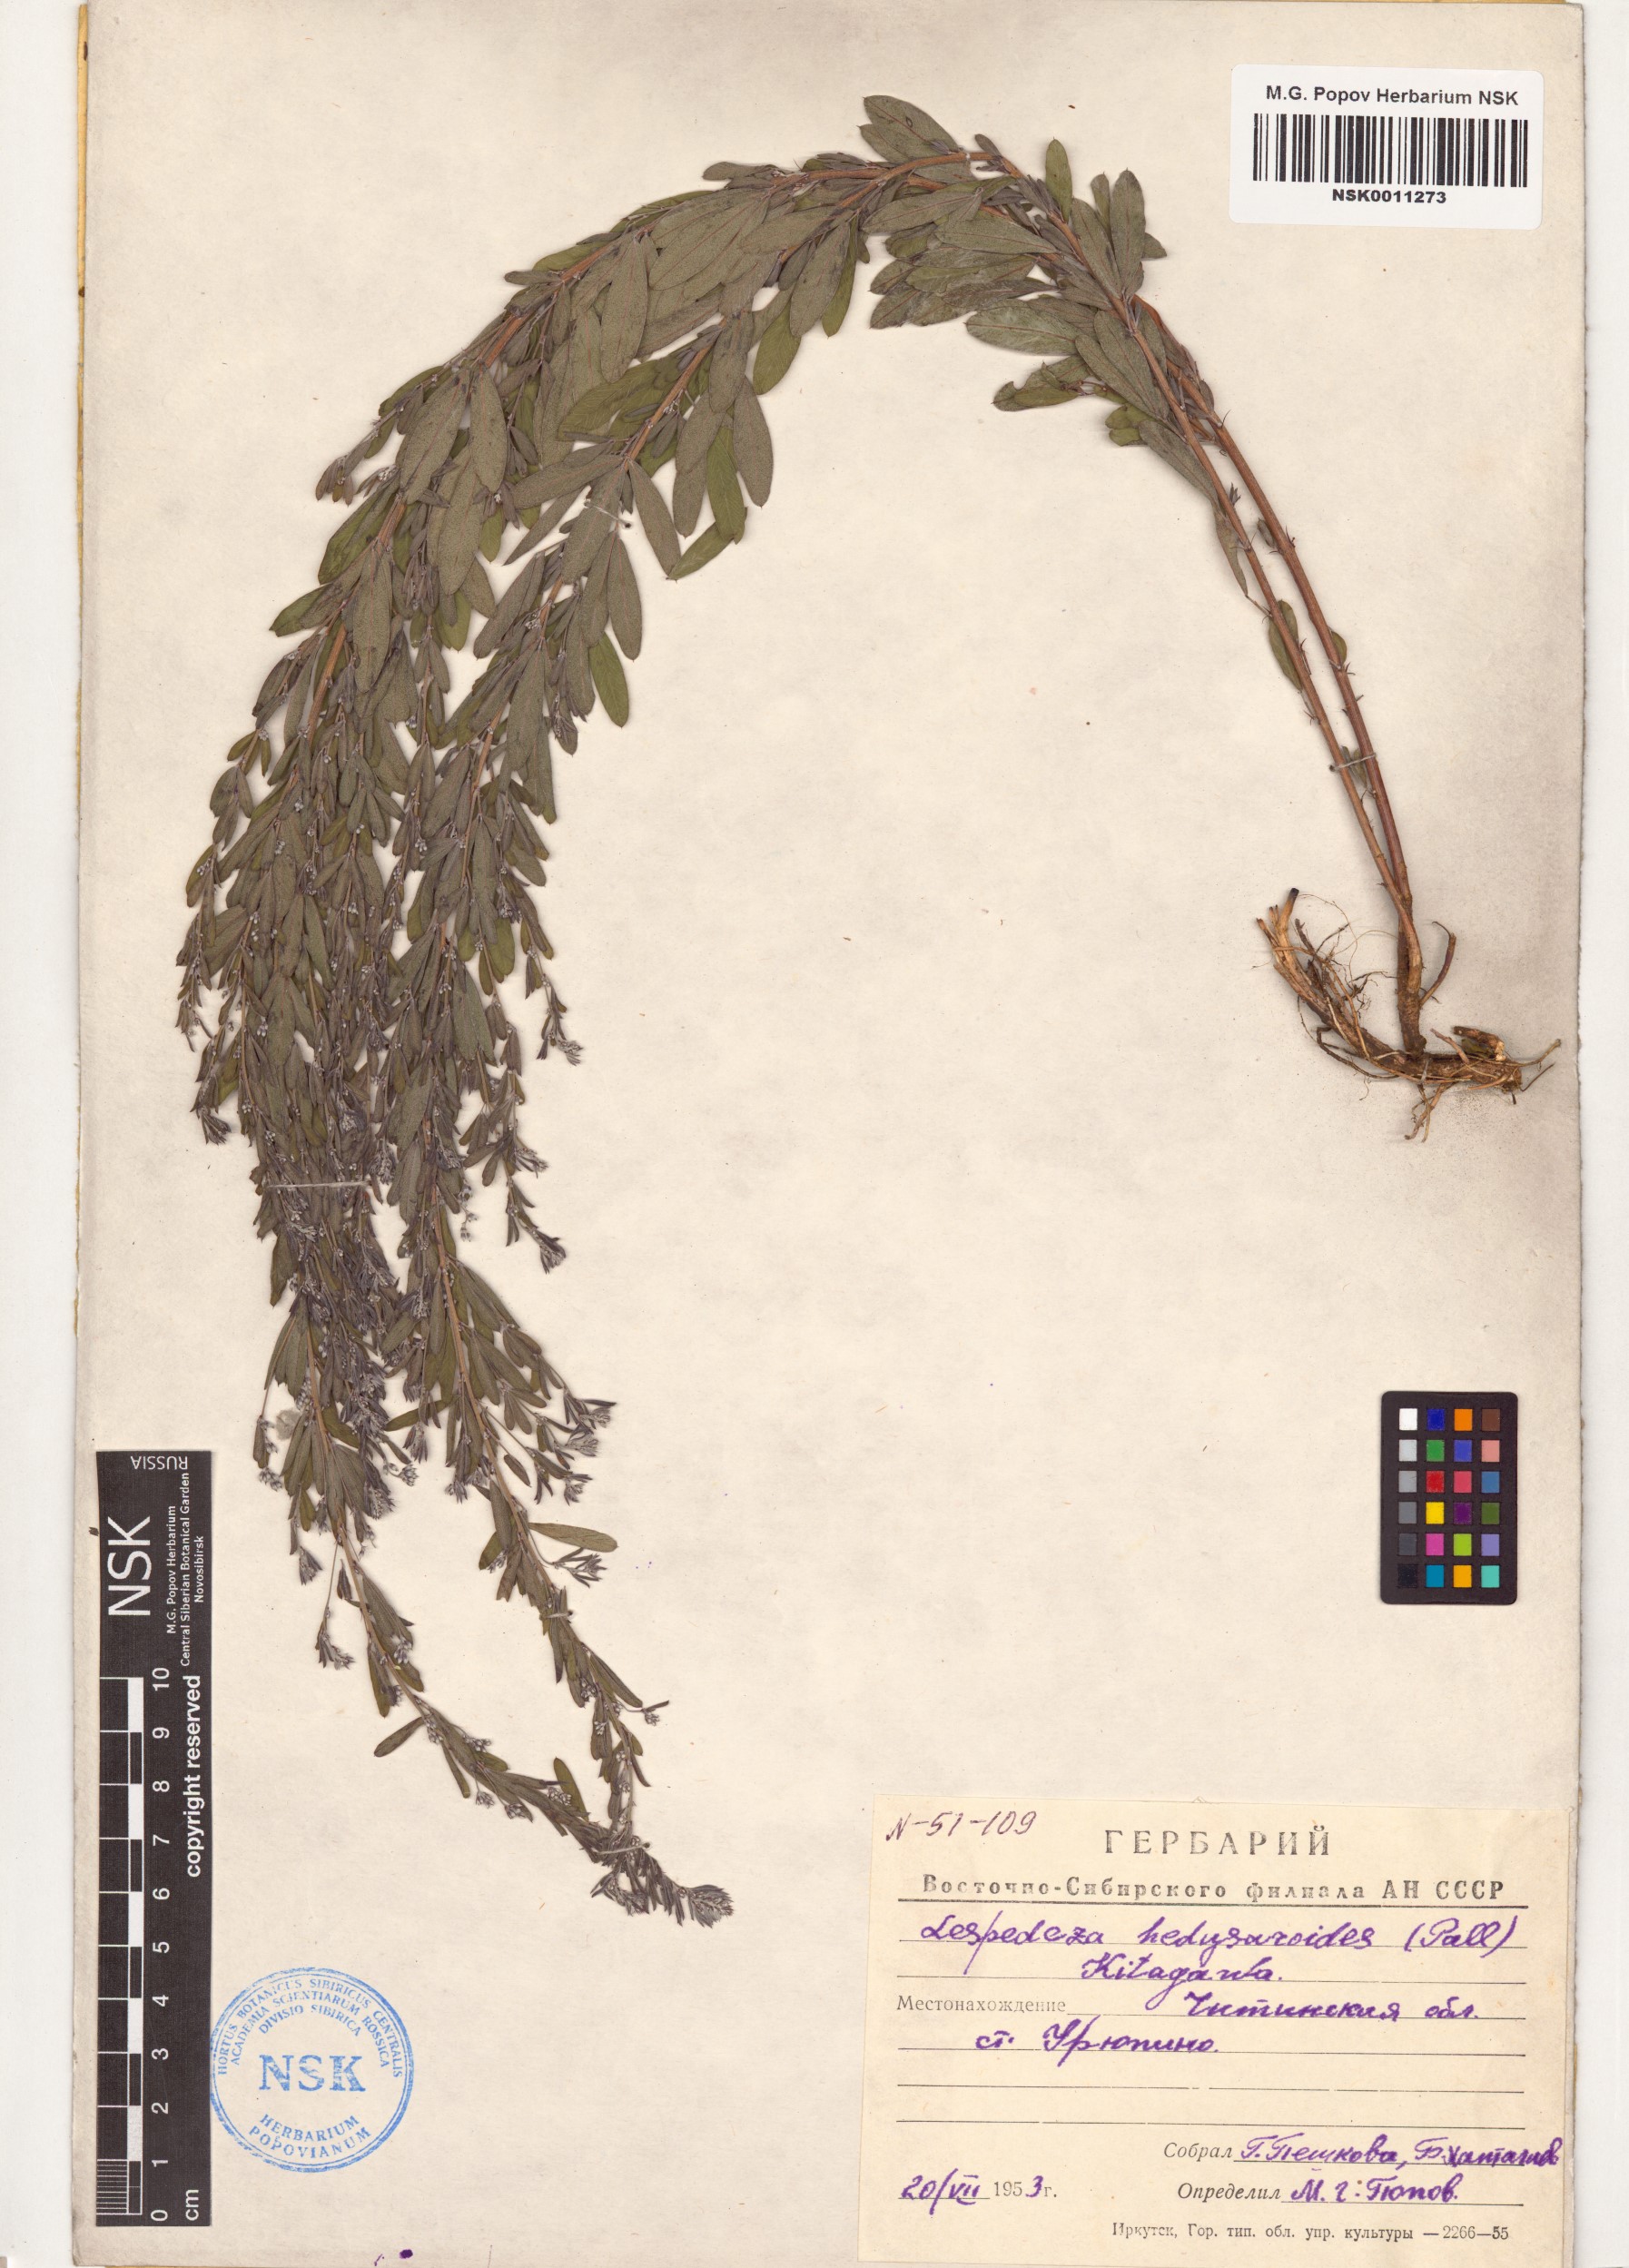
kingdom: Plantae
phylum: Tracheophyta
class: Magnoliopsida
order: Fabales
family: Fabaceae
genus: Lespedeza
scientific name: Lespedeza juncea
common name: Siberian lespedeza
